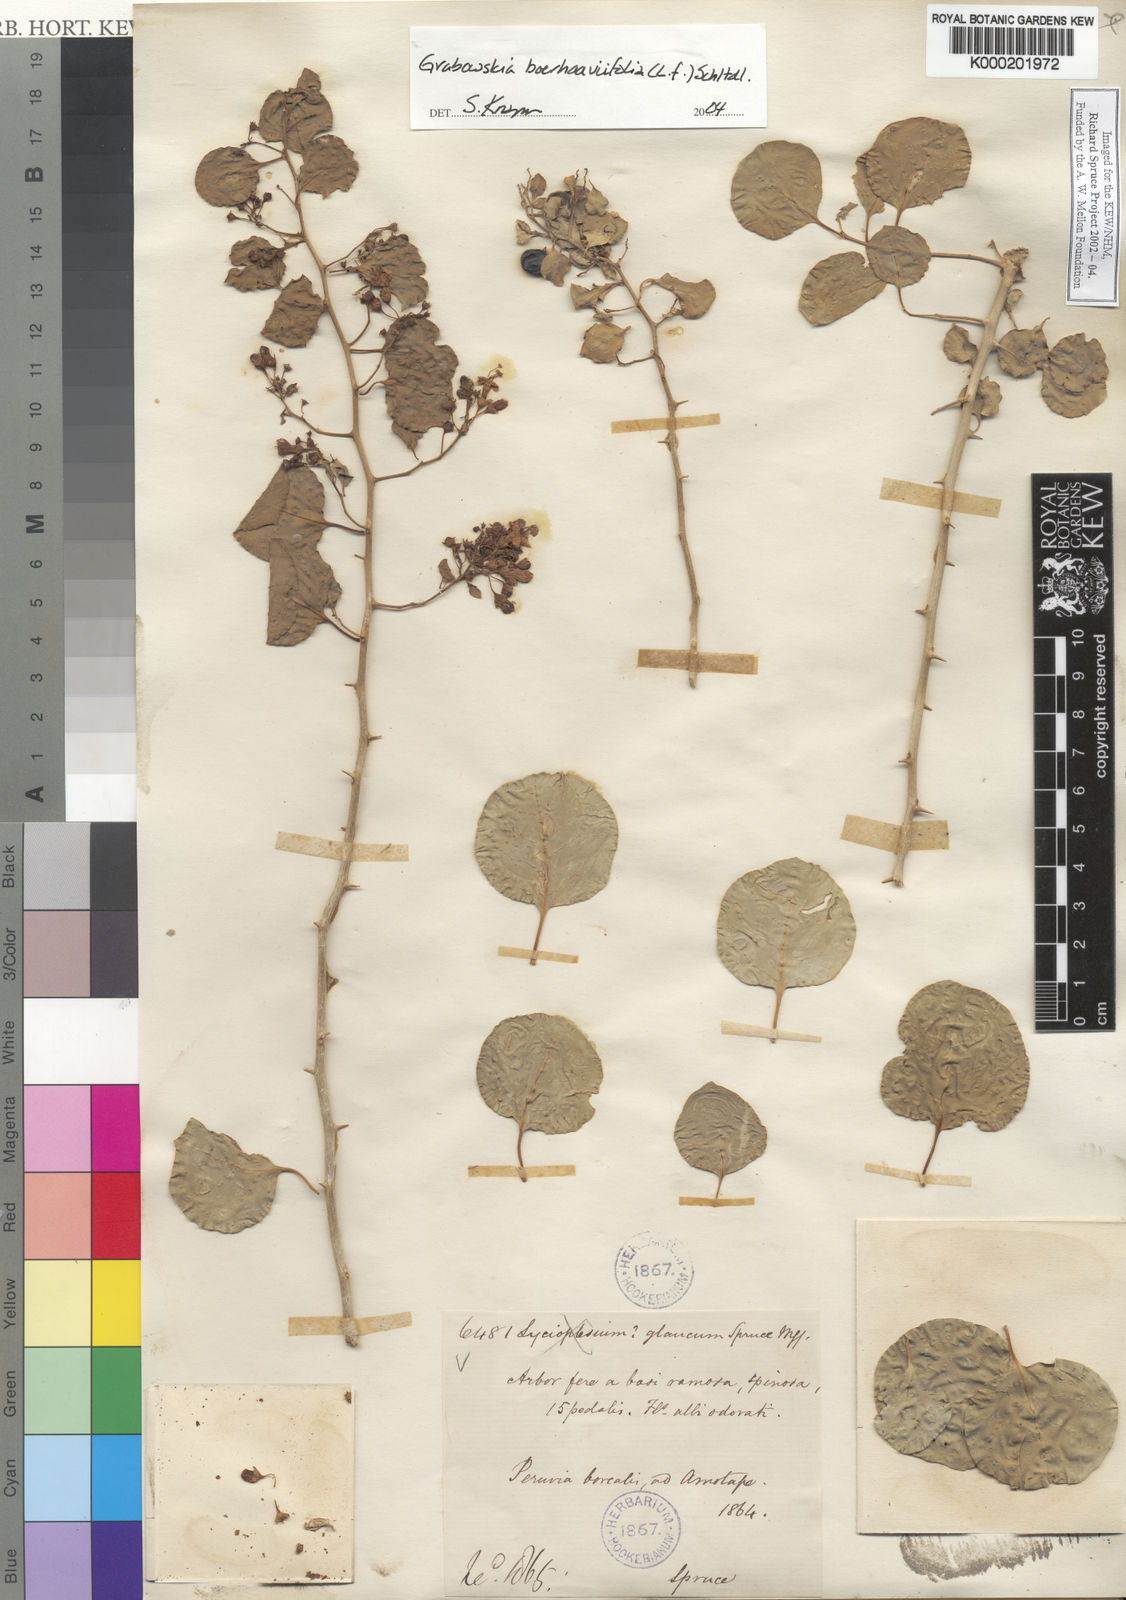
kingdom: Plantae
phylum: Tracheophyta
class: Magnoliopsida
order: Solanales
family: Solanaceae
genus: Lycium
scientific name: Lycium boerhaaviifolium
